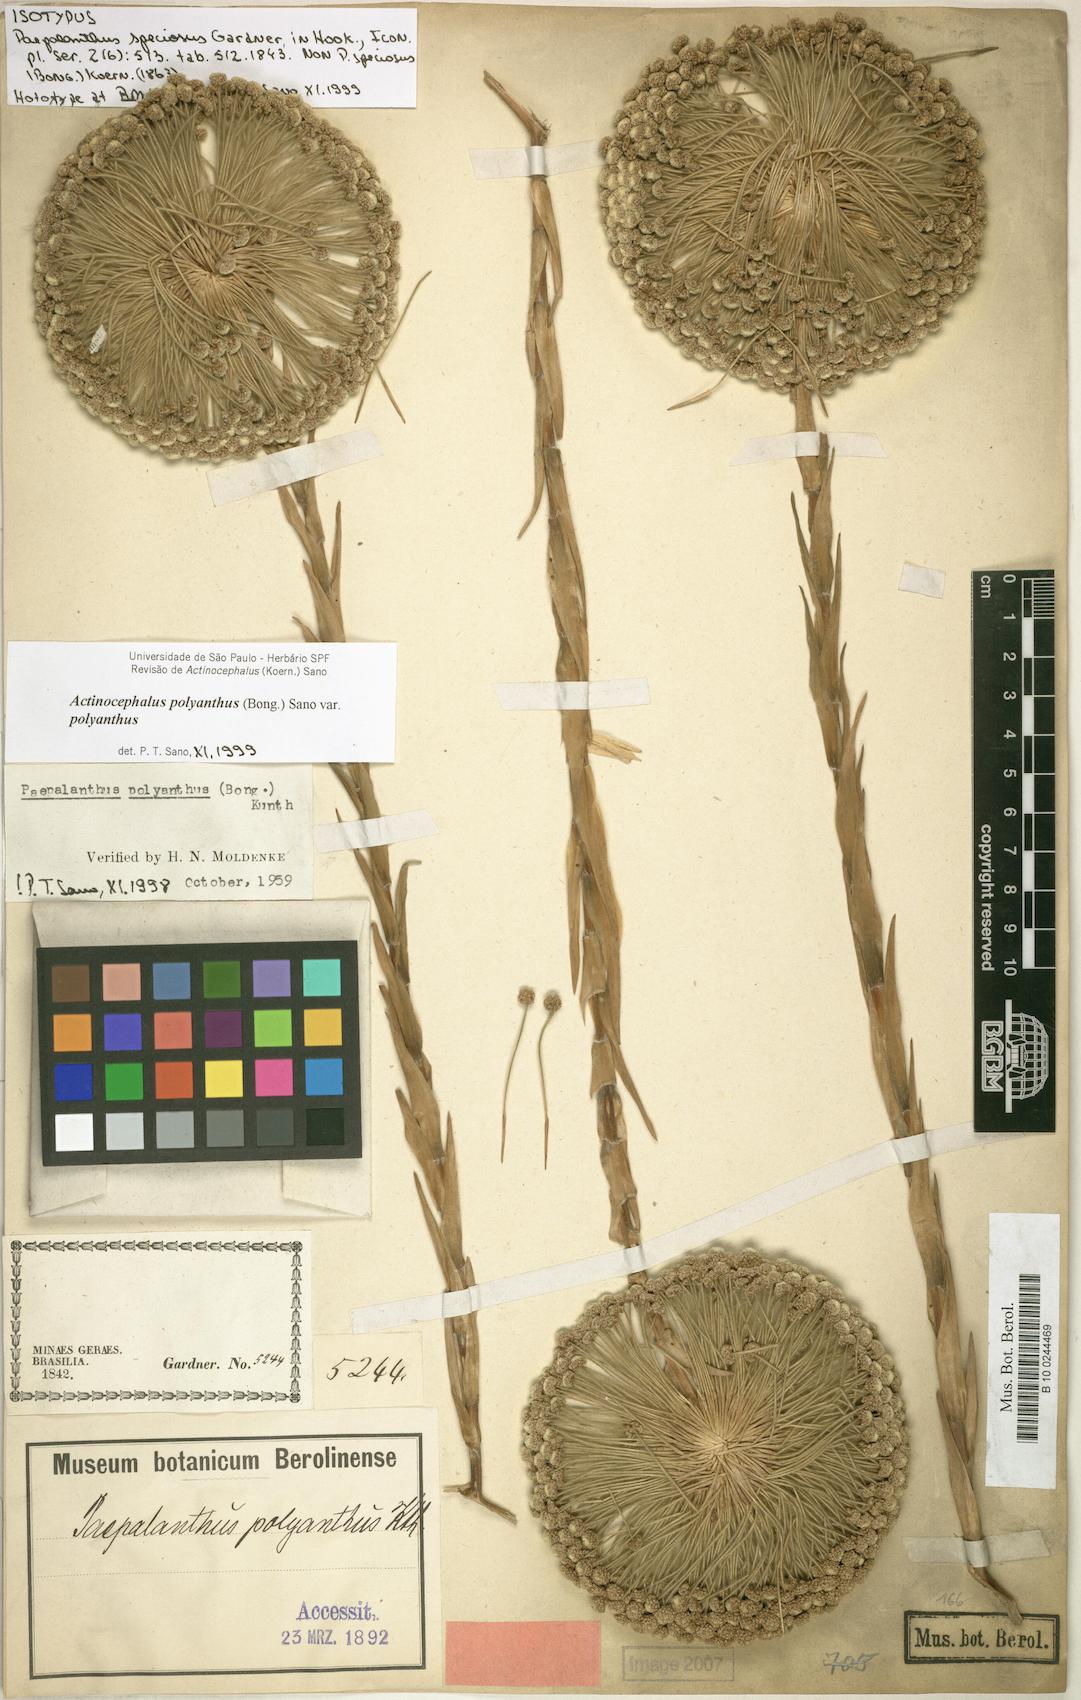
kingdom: Plantae
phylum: Tracheophyta
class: Liliopsida
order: Poales
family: Eriocaulaceae
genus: Paepalanthus
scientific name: Paepalanthus polyanthus
